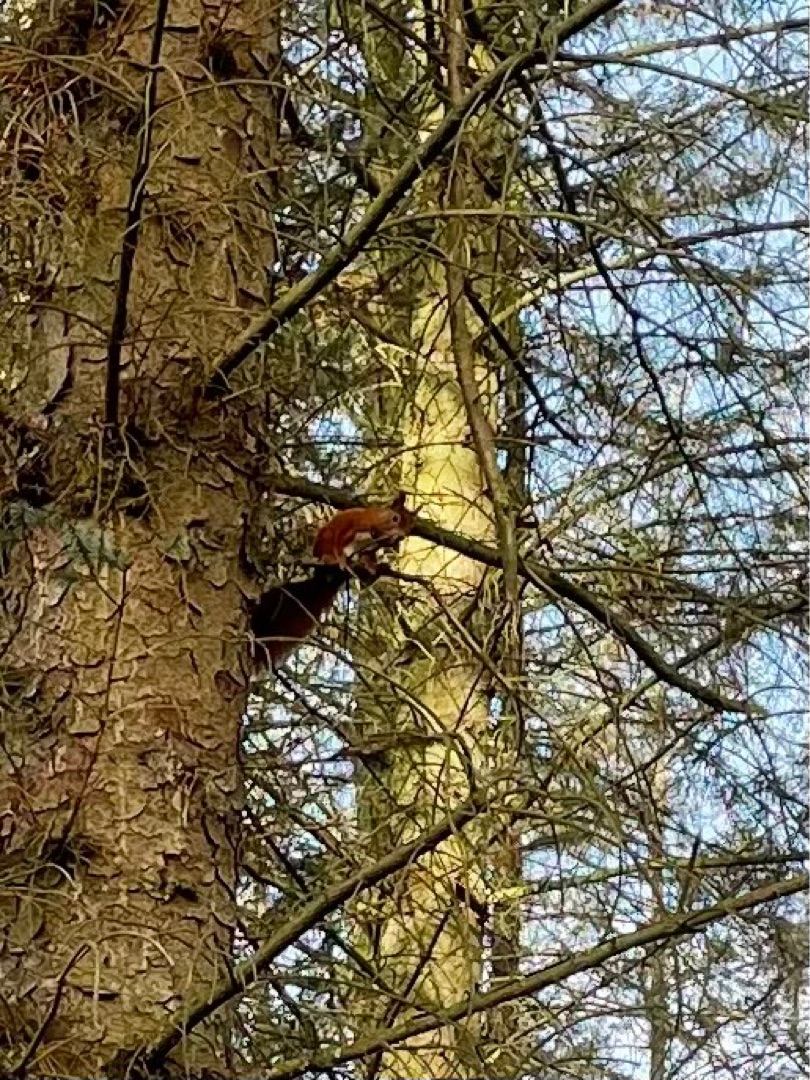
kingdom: Animalia
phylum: Chordata
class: Mammalia
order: Rodentia
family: Sciuridae
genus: Sciurus
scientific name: Sciurus vulgaris
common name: Egern
